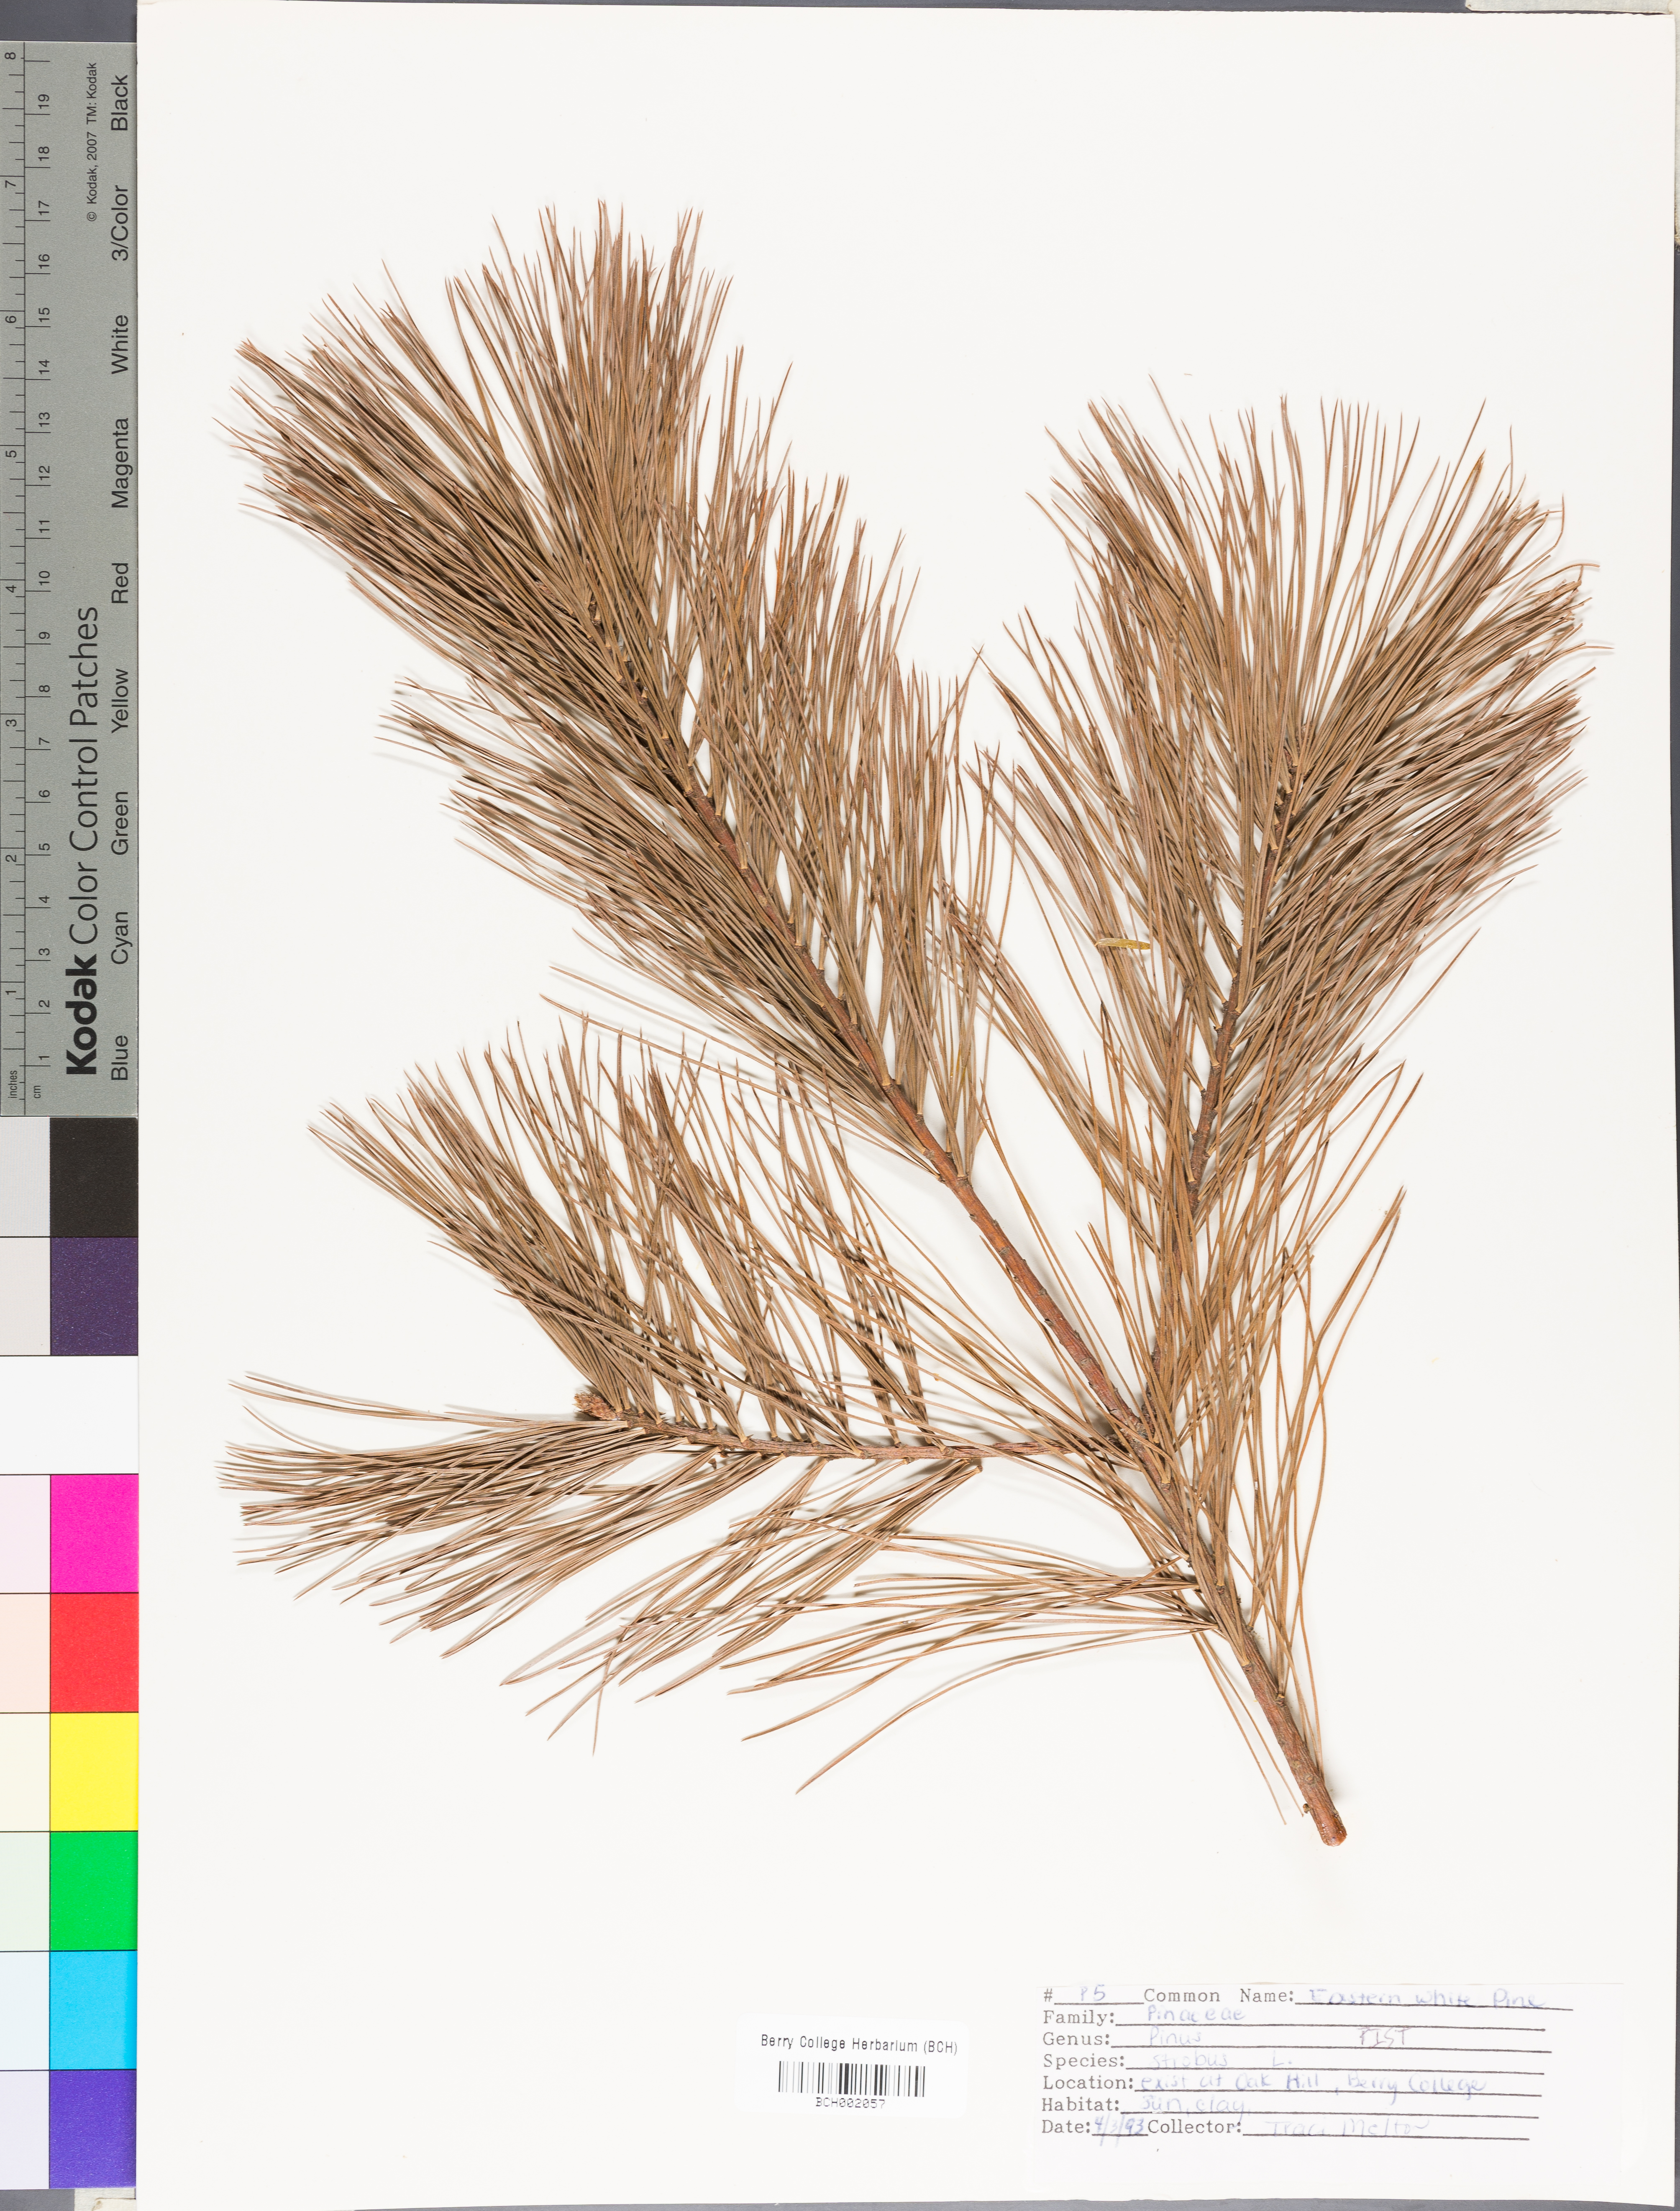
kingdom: Plantae
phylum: Tracheophyta
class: Pinopsida
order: Pinales
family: Pinaceae
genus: Pinus
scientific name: Pinus strobus
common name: Weymouth pine
